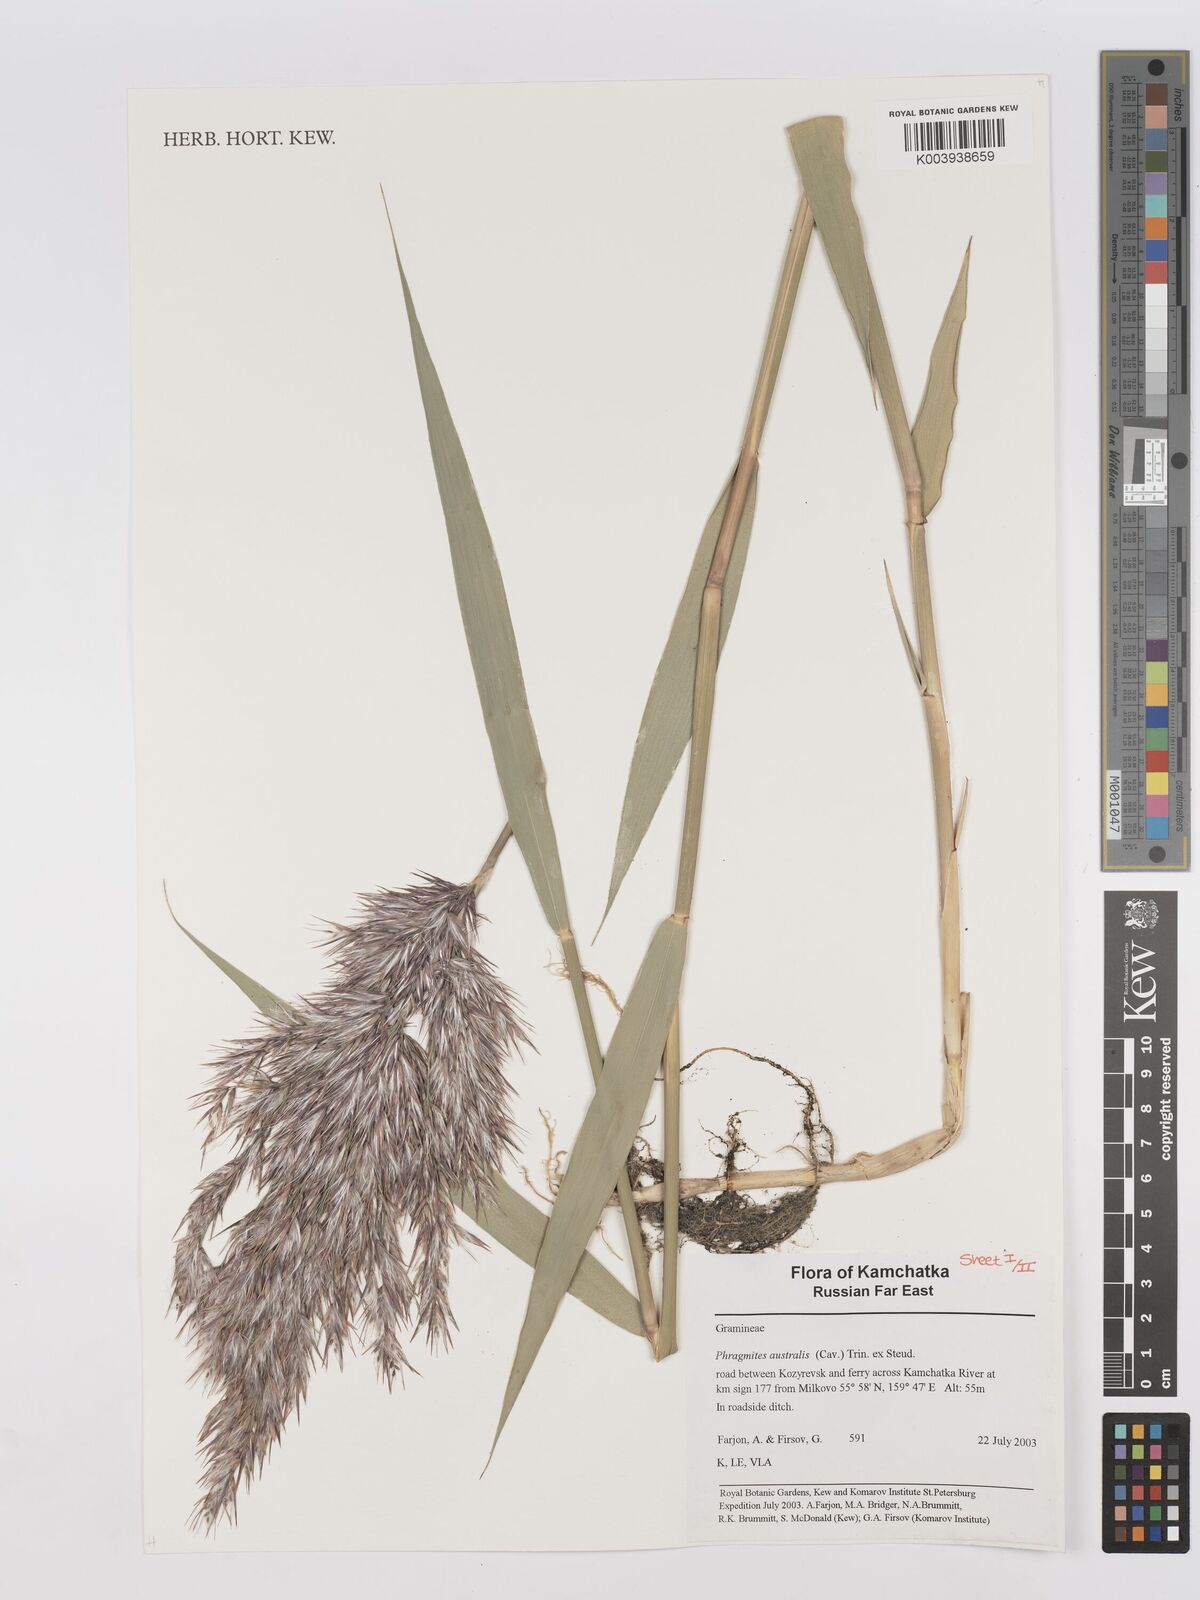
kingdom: Plantae
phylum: Tracheophyta
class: Liliopsida
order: Poales
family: Poaceae
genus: Phragmites
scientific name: Phragmites australis
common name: Common reed
